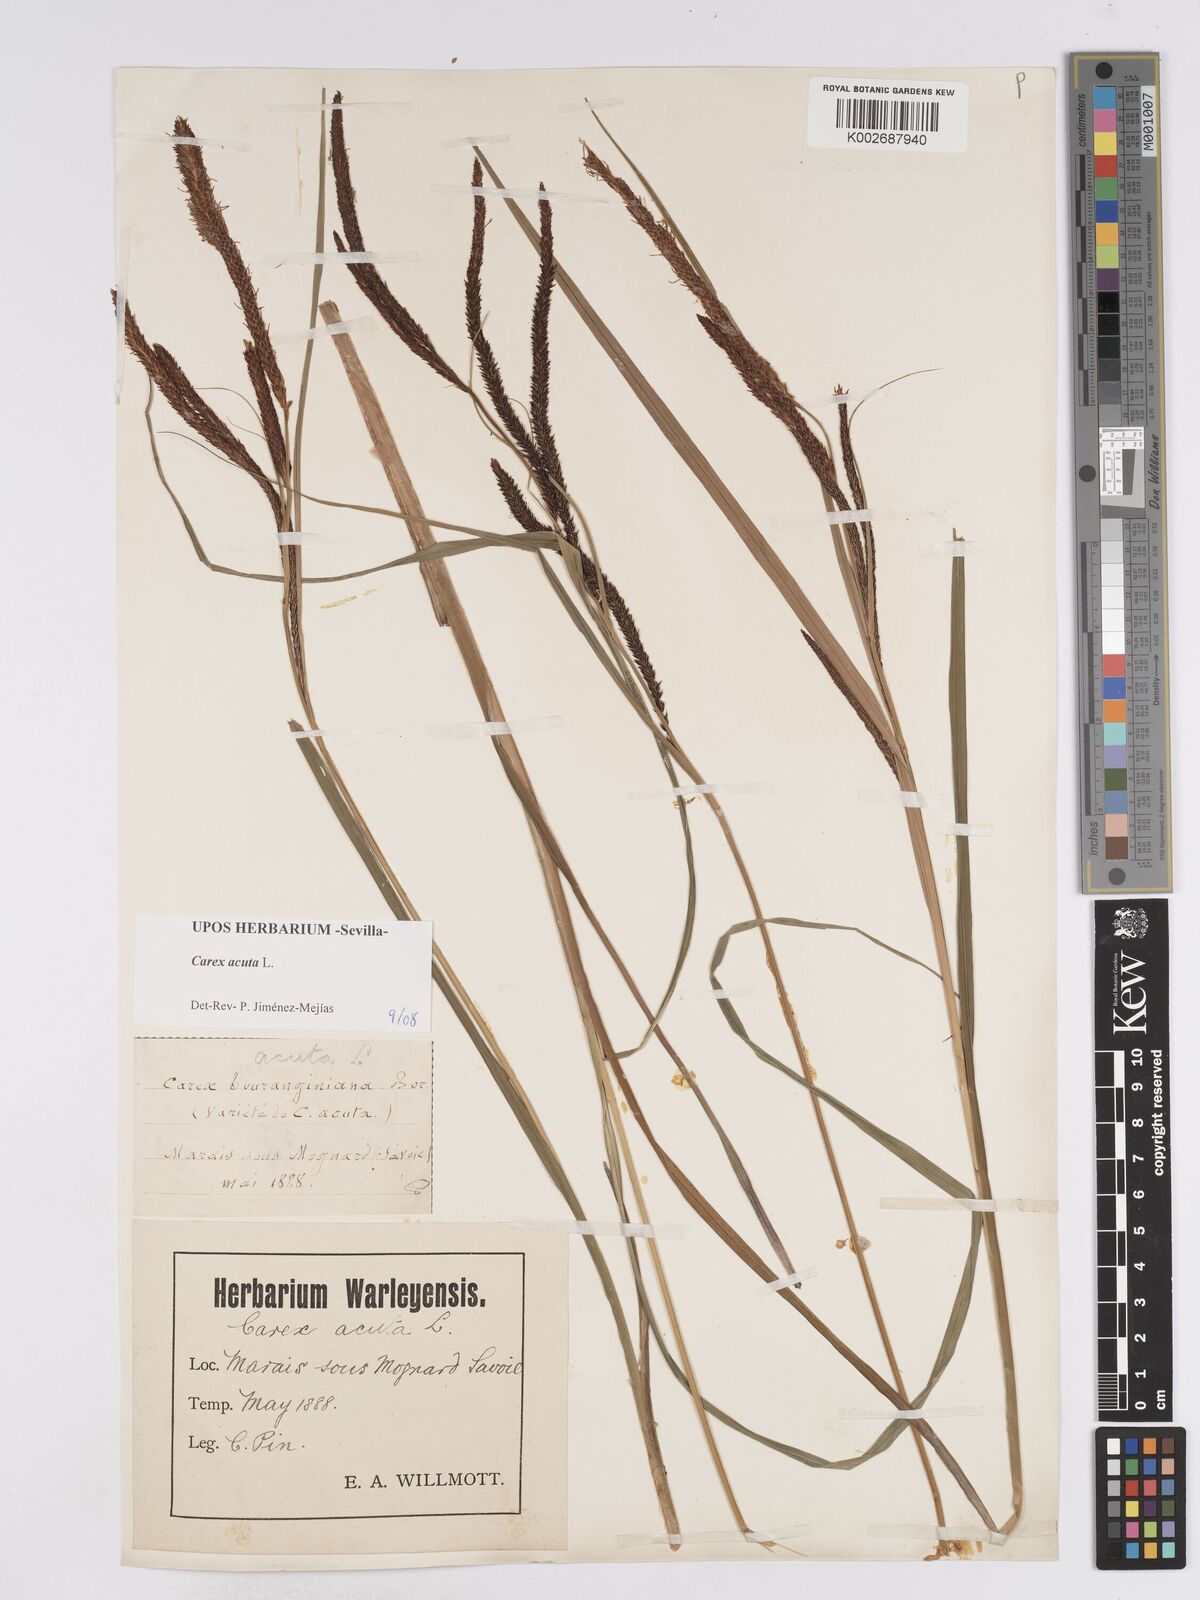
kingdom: Plantae
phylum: Tracheophyta
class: Liliopsida
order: Poales
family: Cyperaceae
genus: Carex
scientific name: Carex acuta
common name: Slender tufted-sedge
